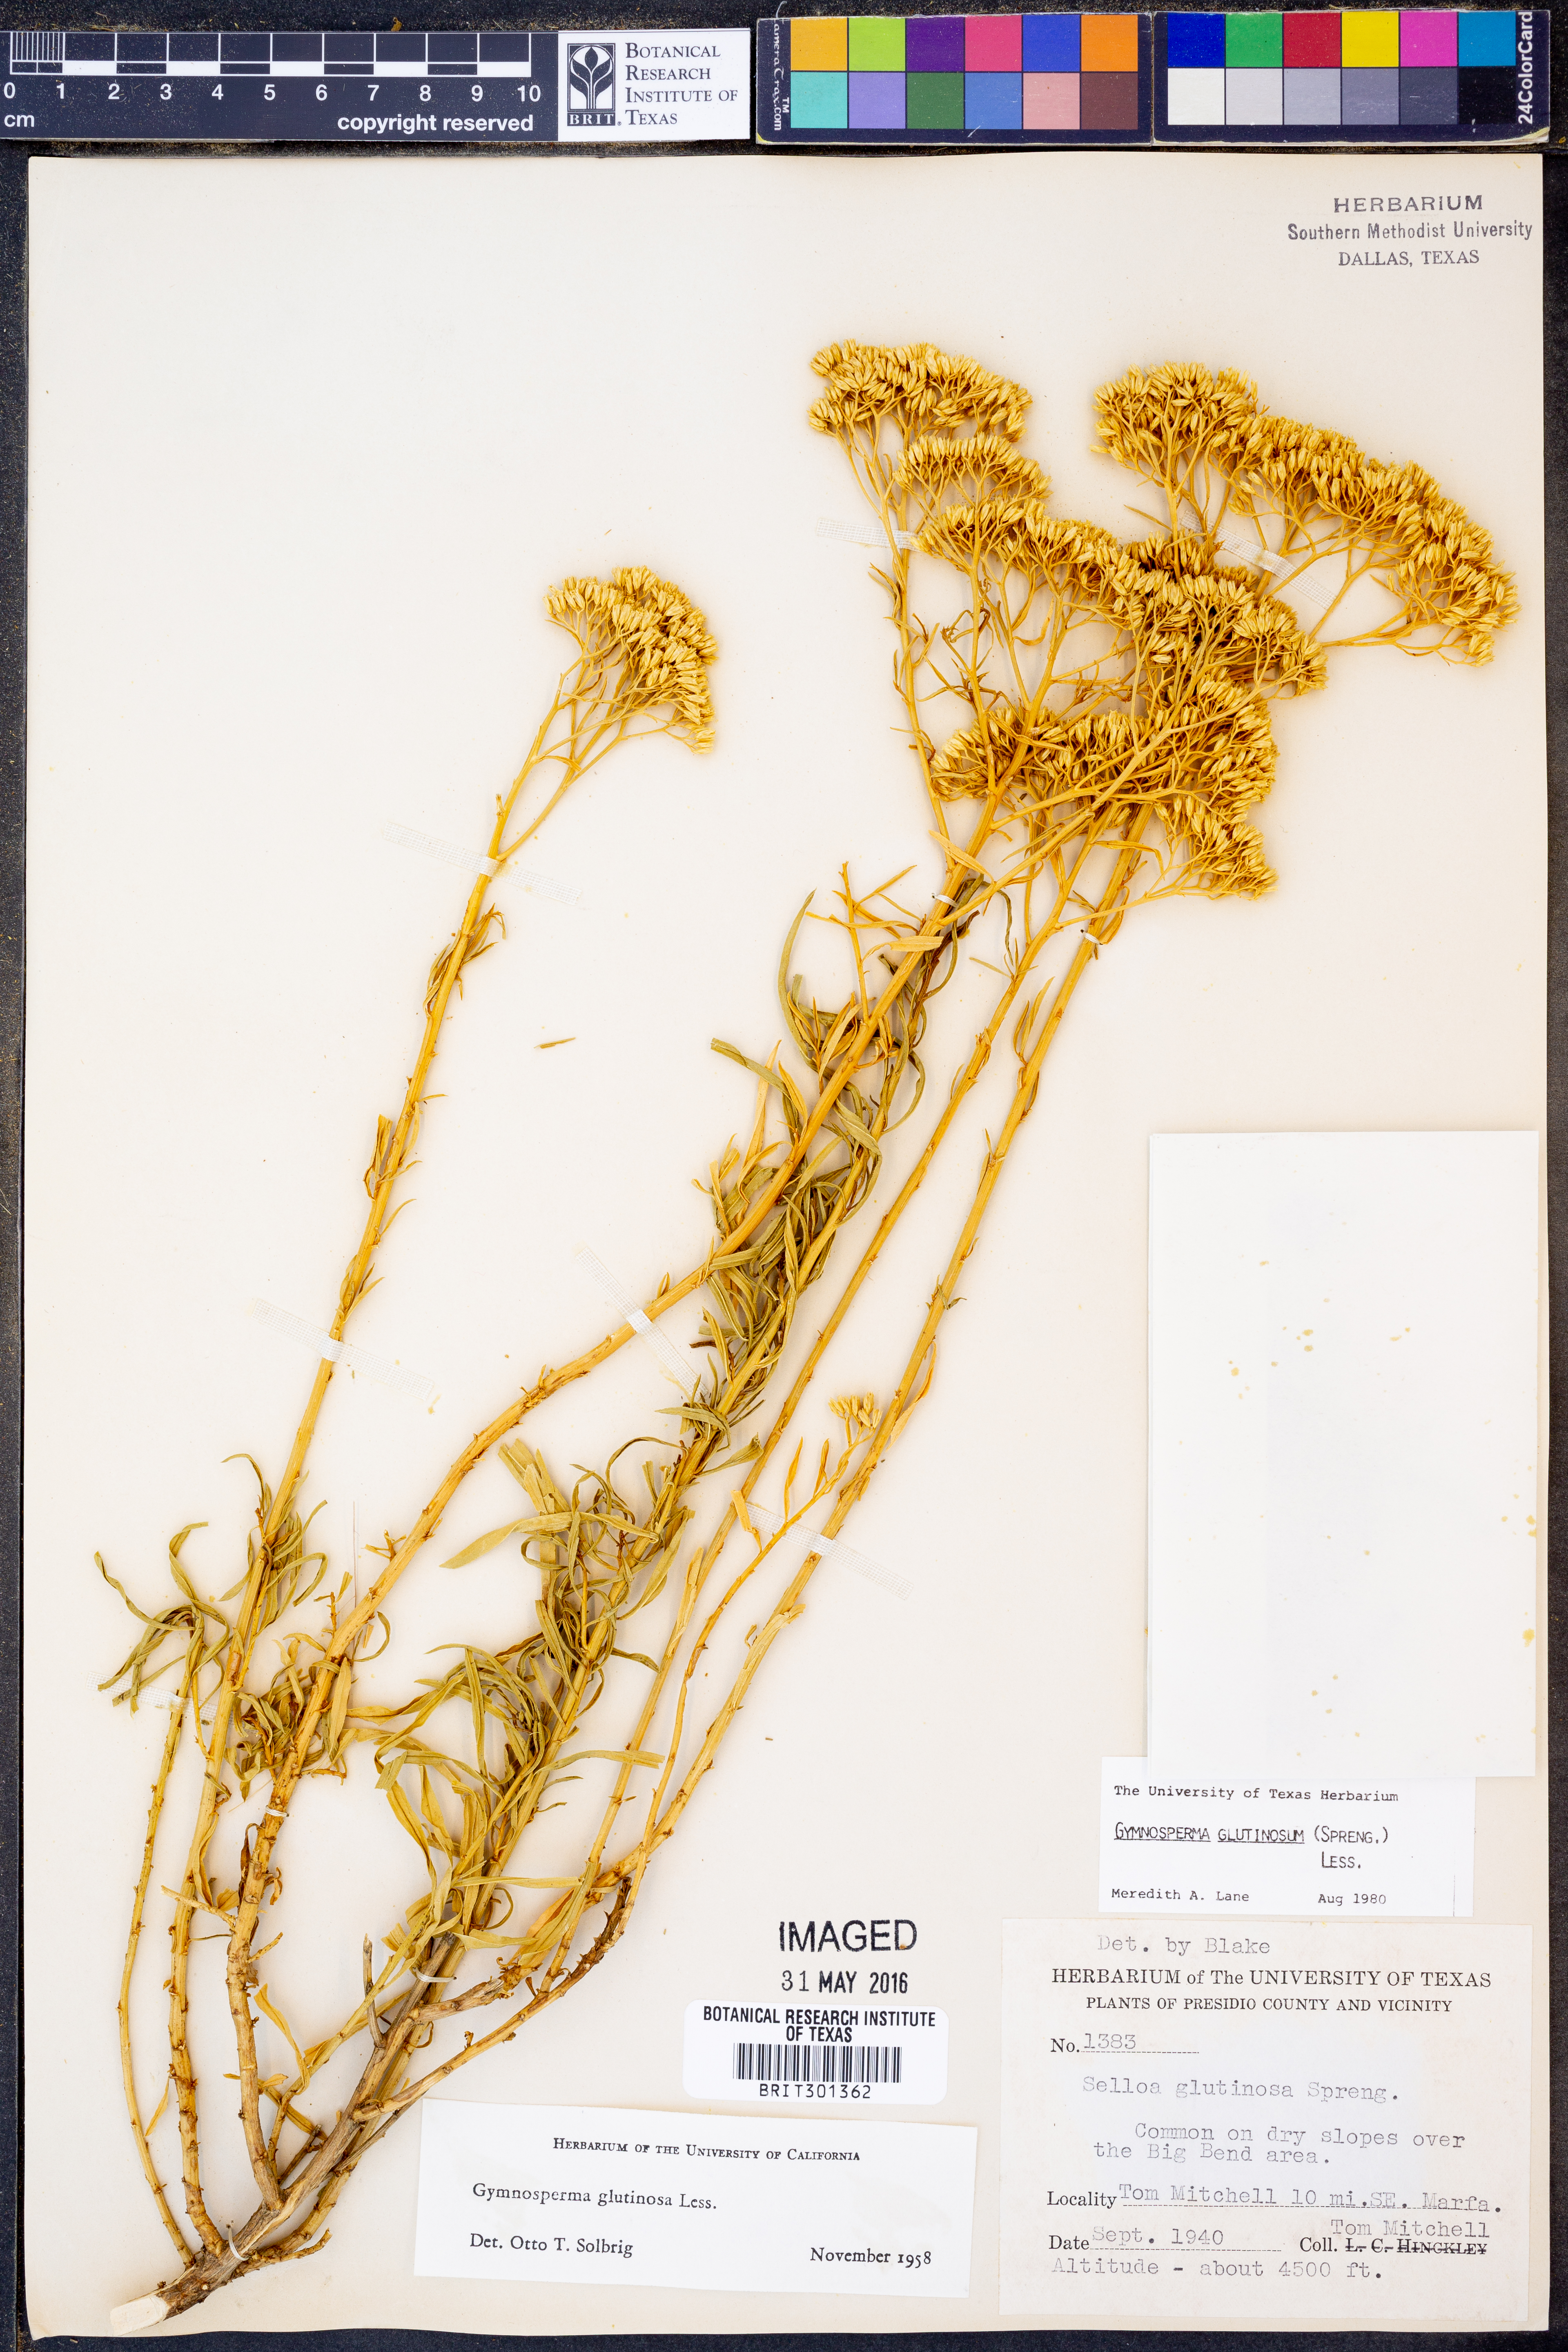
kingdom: Plantae
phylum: Tracheophyta
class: Magnoliopsida
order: Asterales
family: Asteraceae
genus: Gymnosperma
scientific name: Gymnosperma glutinosum
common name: Gumhead
